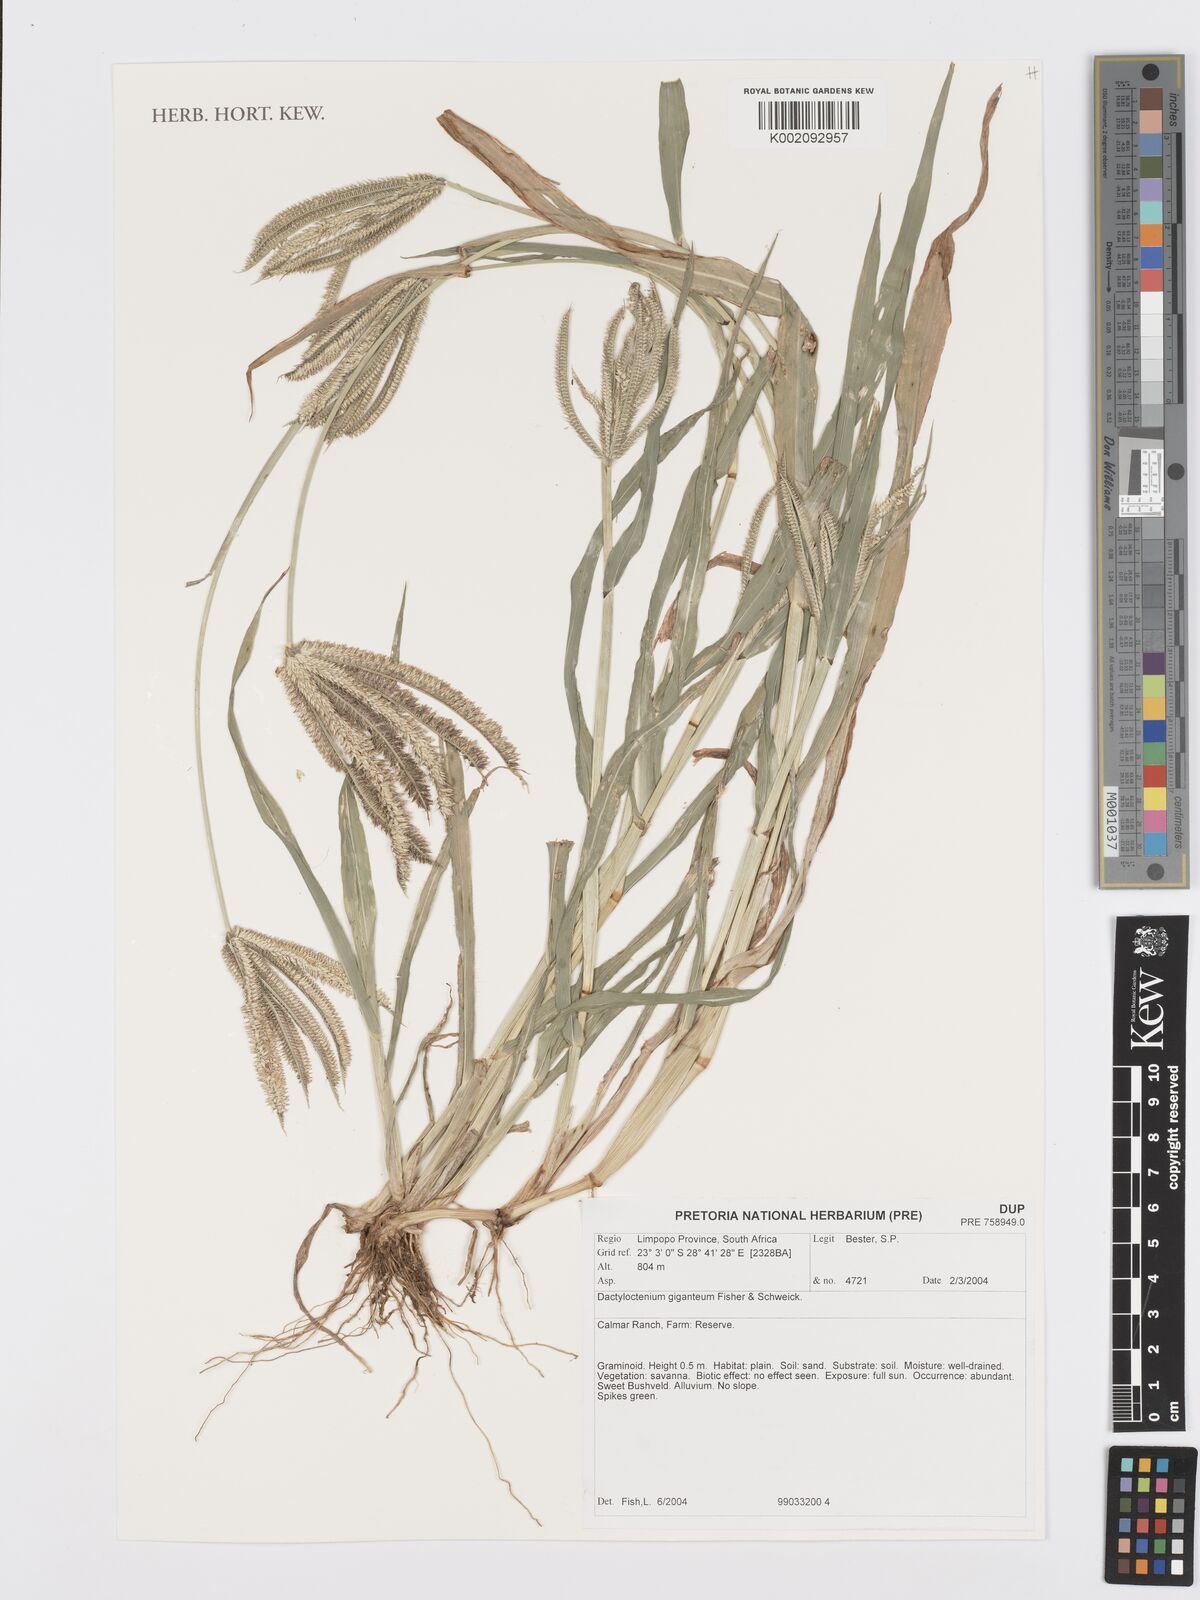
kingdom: Plantae
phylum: Tracheophyta
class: Liliopsida
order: Poales
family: Poaceae
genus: Dactyloctenium
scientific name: Dactyloctenium giganteum
